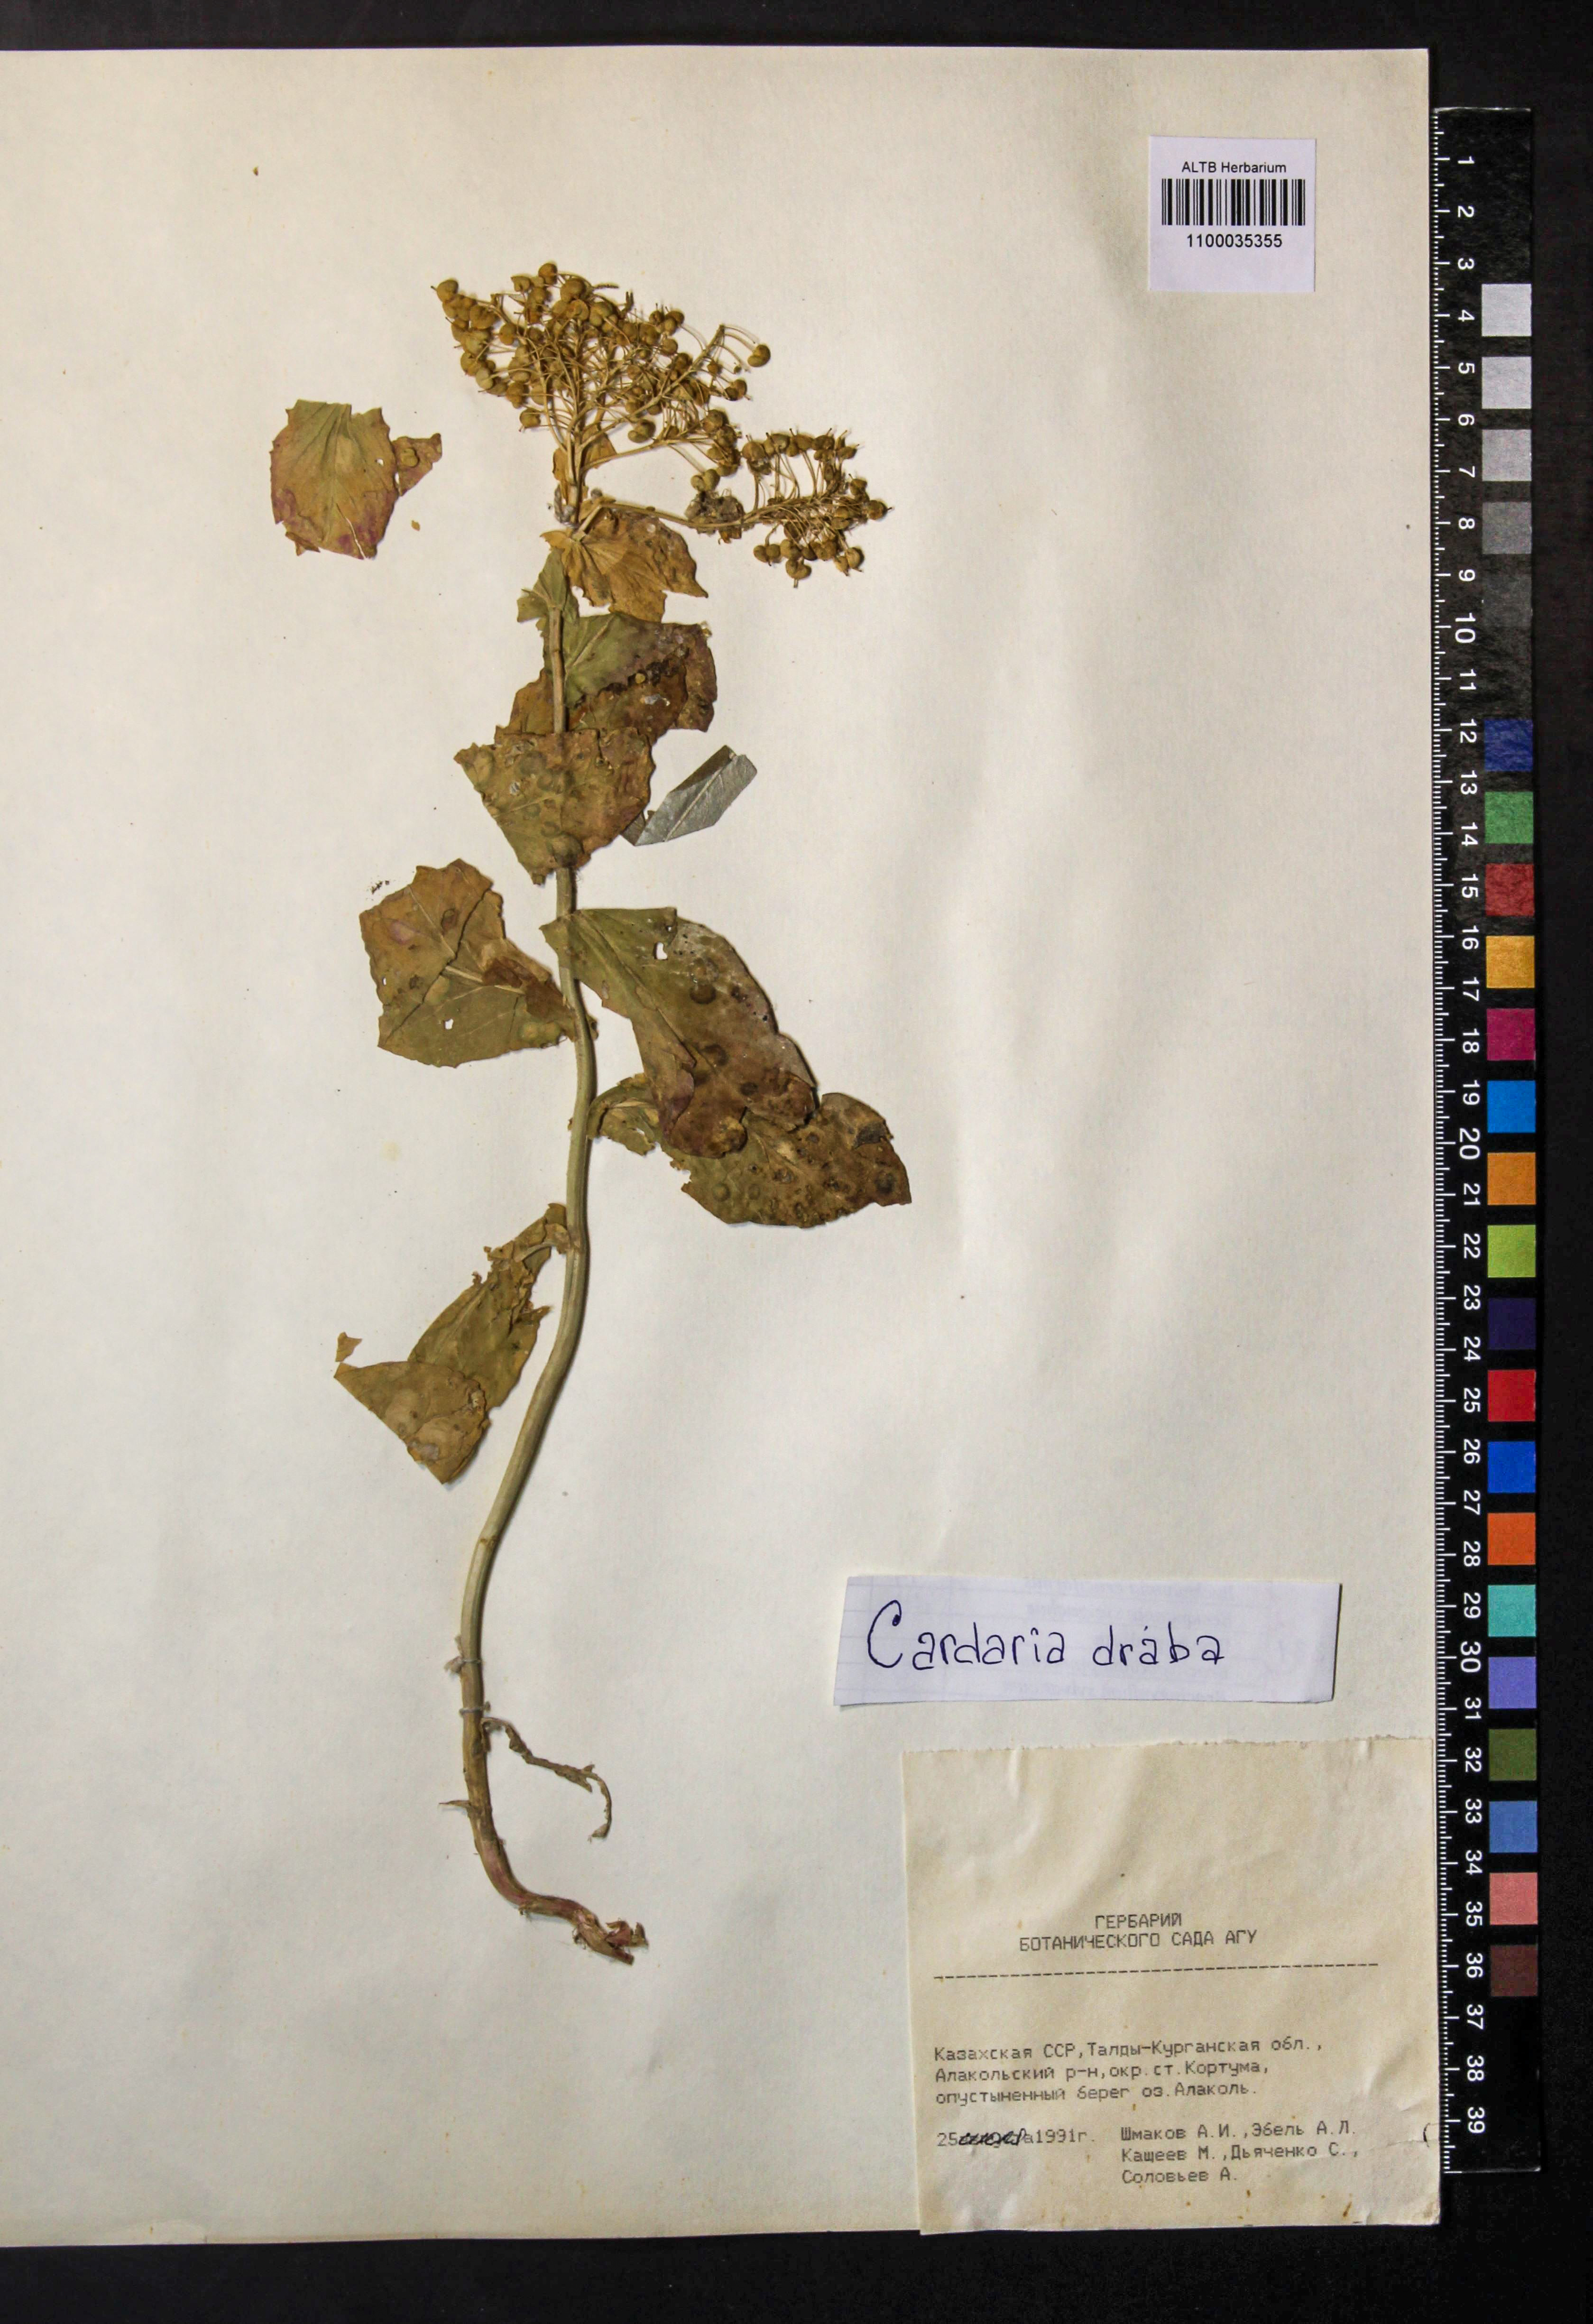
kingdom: Plantae
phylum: Tracheophyta
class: Magnoliopsida
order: Brassicales
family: Brassicaceae
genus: Lepidium
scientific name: Lepidium draba
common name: Hoary cress
